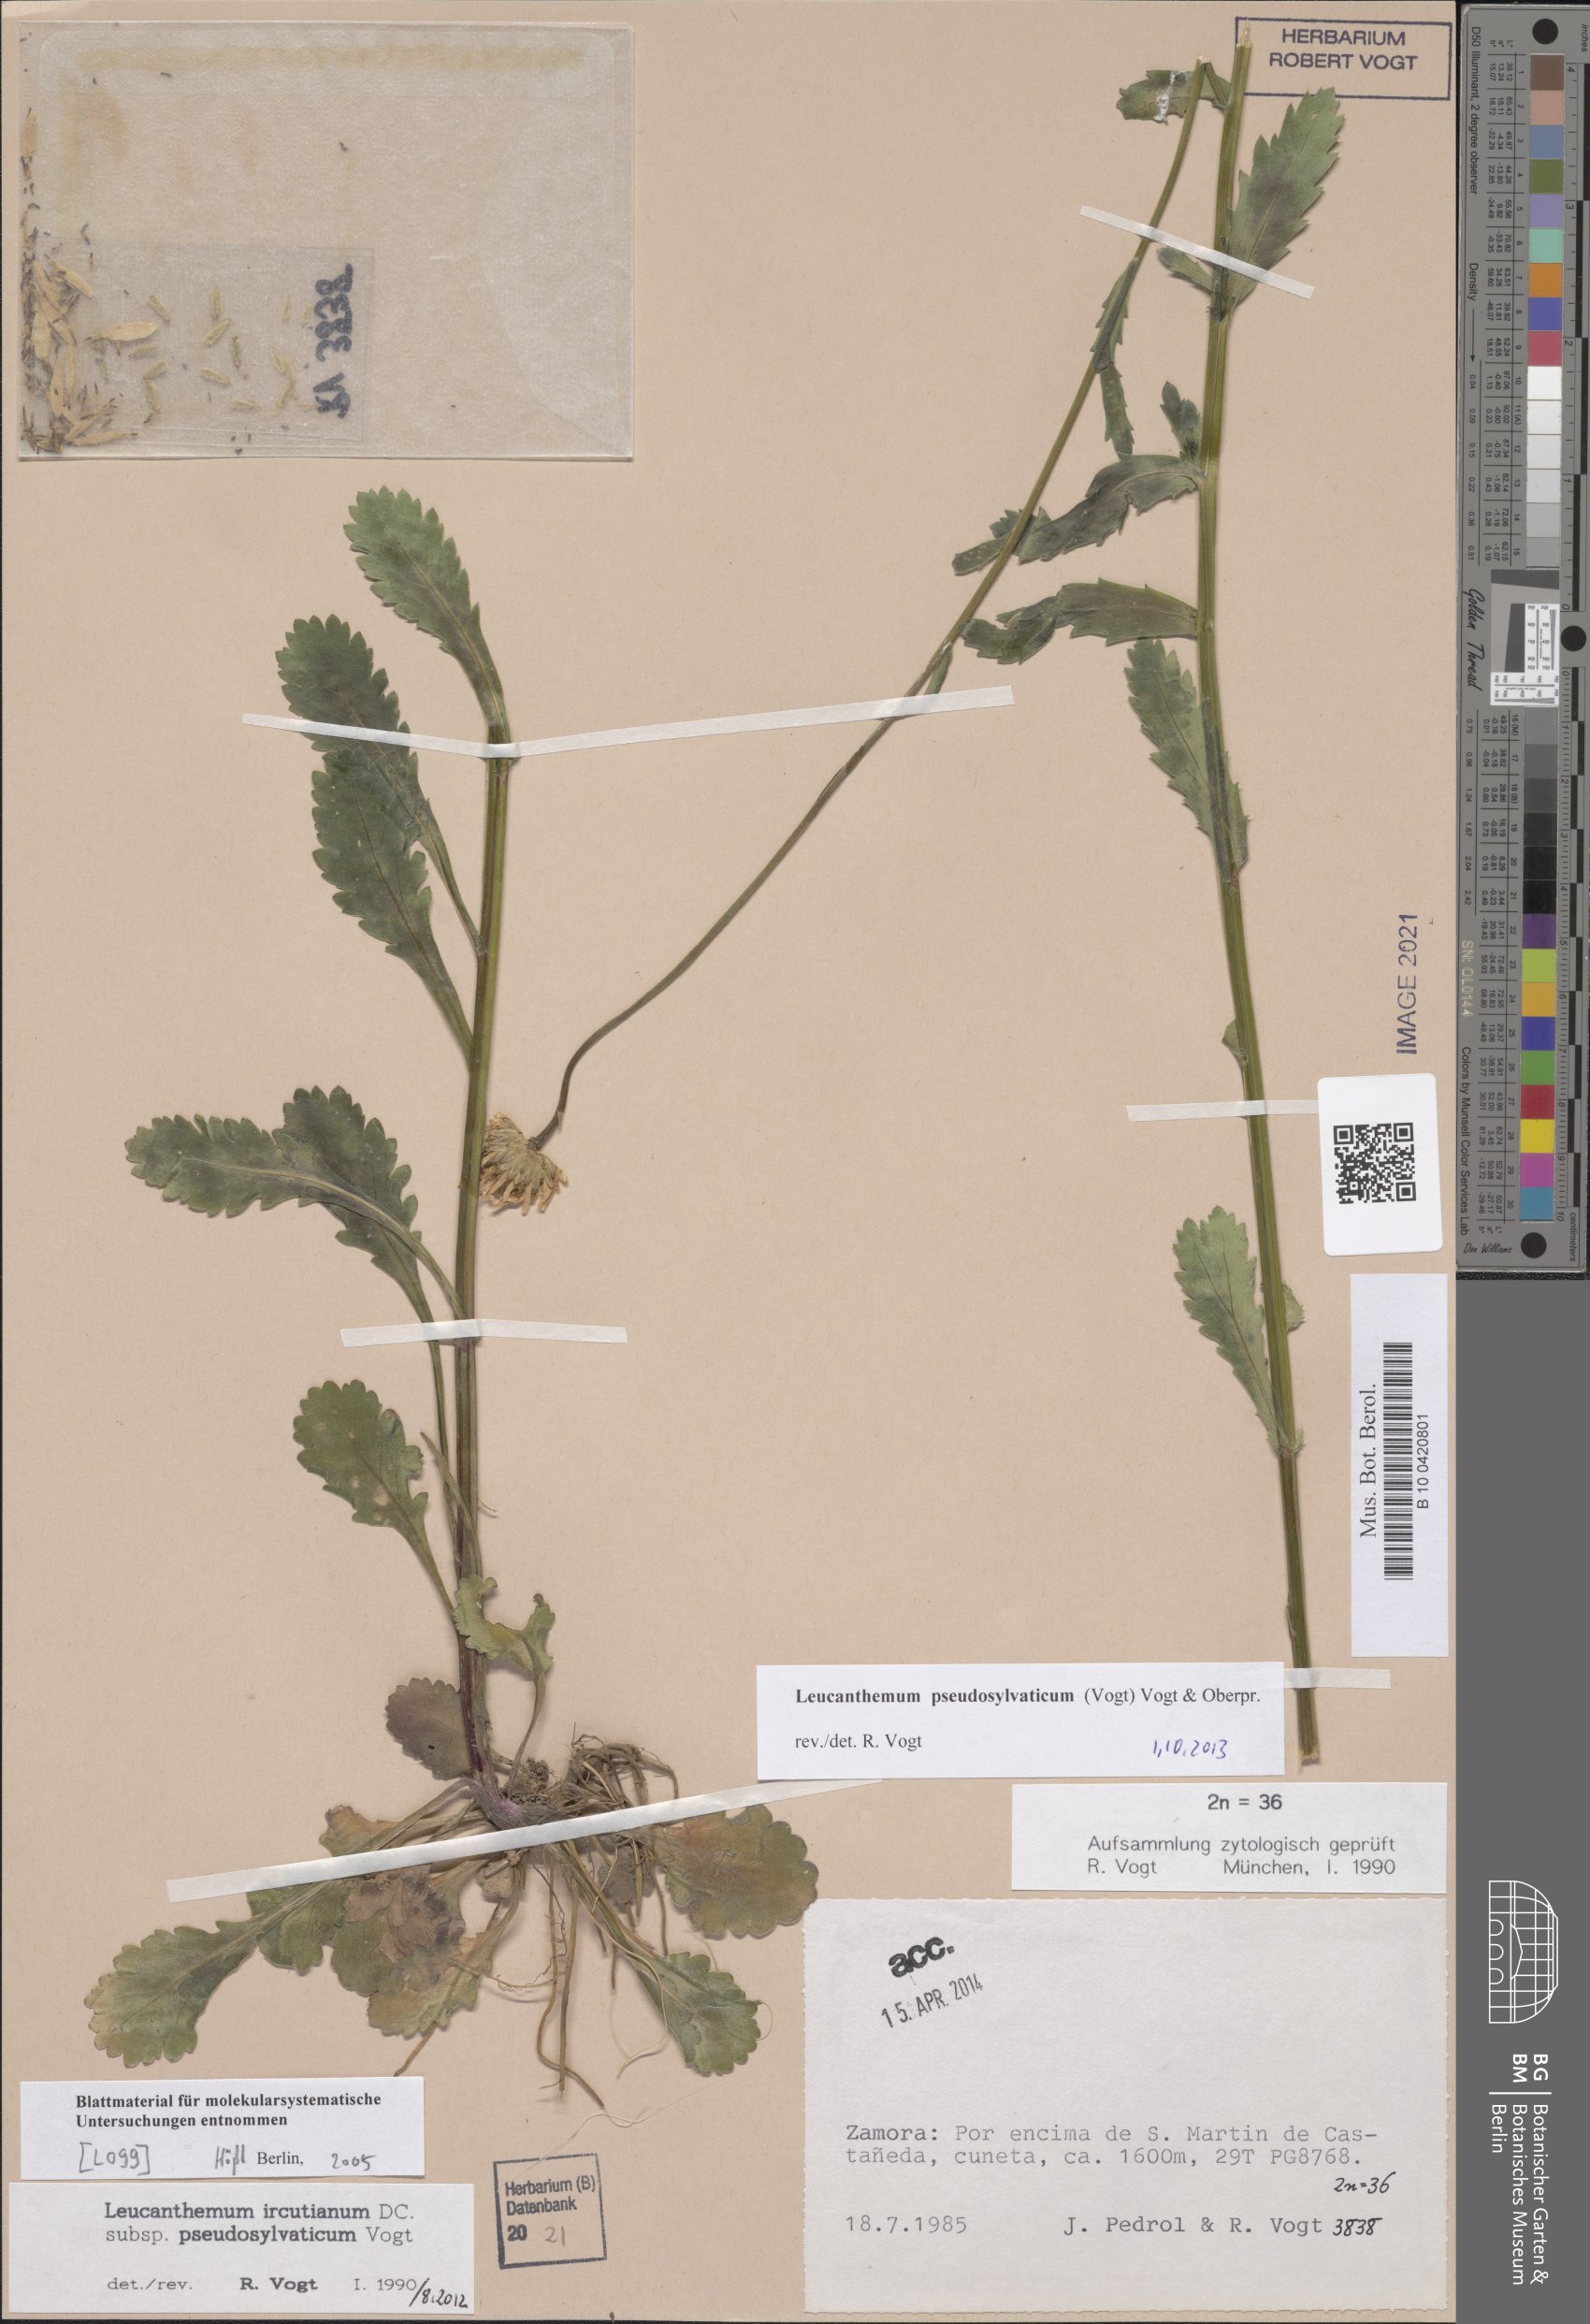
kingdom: Plantae
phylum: Tracheophyta
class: Magnoliopsida
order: Asterales
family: Asteraceae
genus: Leucanthemum
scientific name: Leucanthemum pseudosylvaticum
